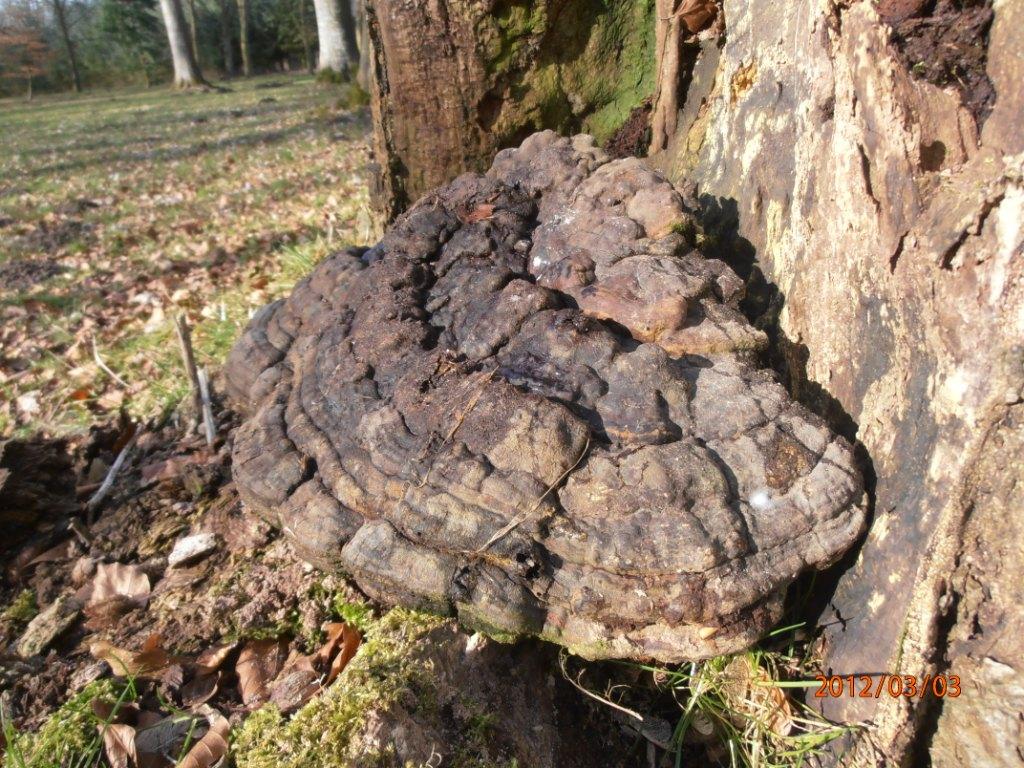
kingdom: Fungi
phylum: Basidiomycota
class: Agaricomycetes
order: Polyporales
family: Polyporaceae
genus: Ganoderma
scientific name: Ganoderma pfeifferi
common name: kobberrød lakporesvamp
